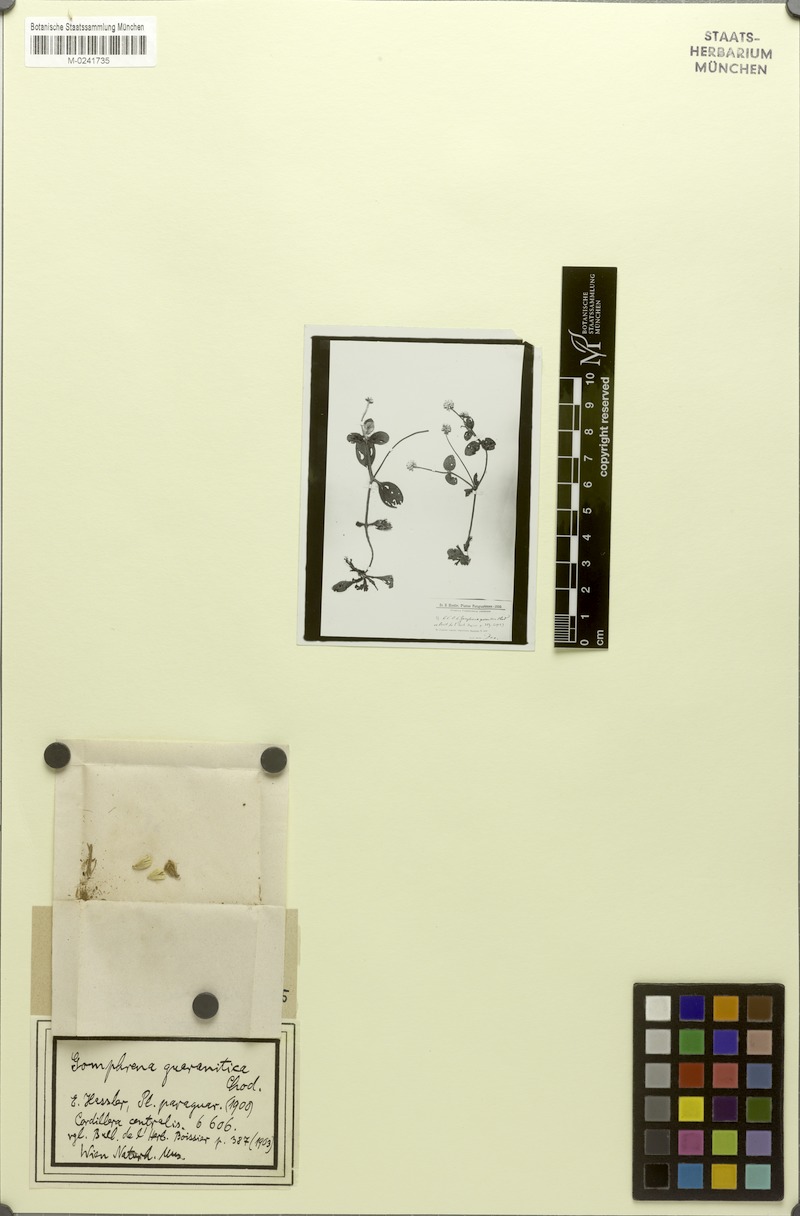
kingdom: Plantae
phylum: Tracheophyta
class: Magnoliopsida
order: Caryophyllales
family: Amaranthaceae
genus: Gomphrena
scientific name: Gomphrena guaranitica
